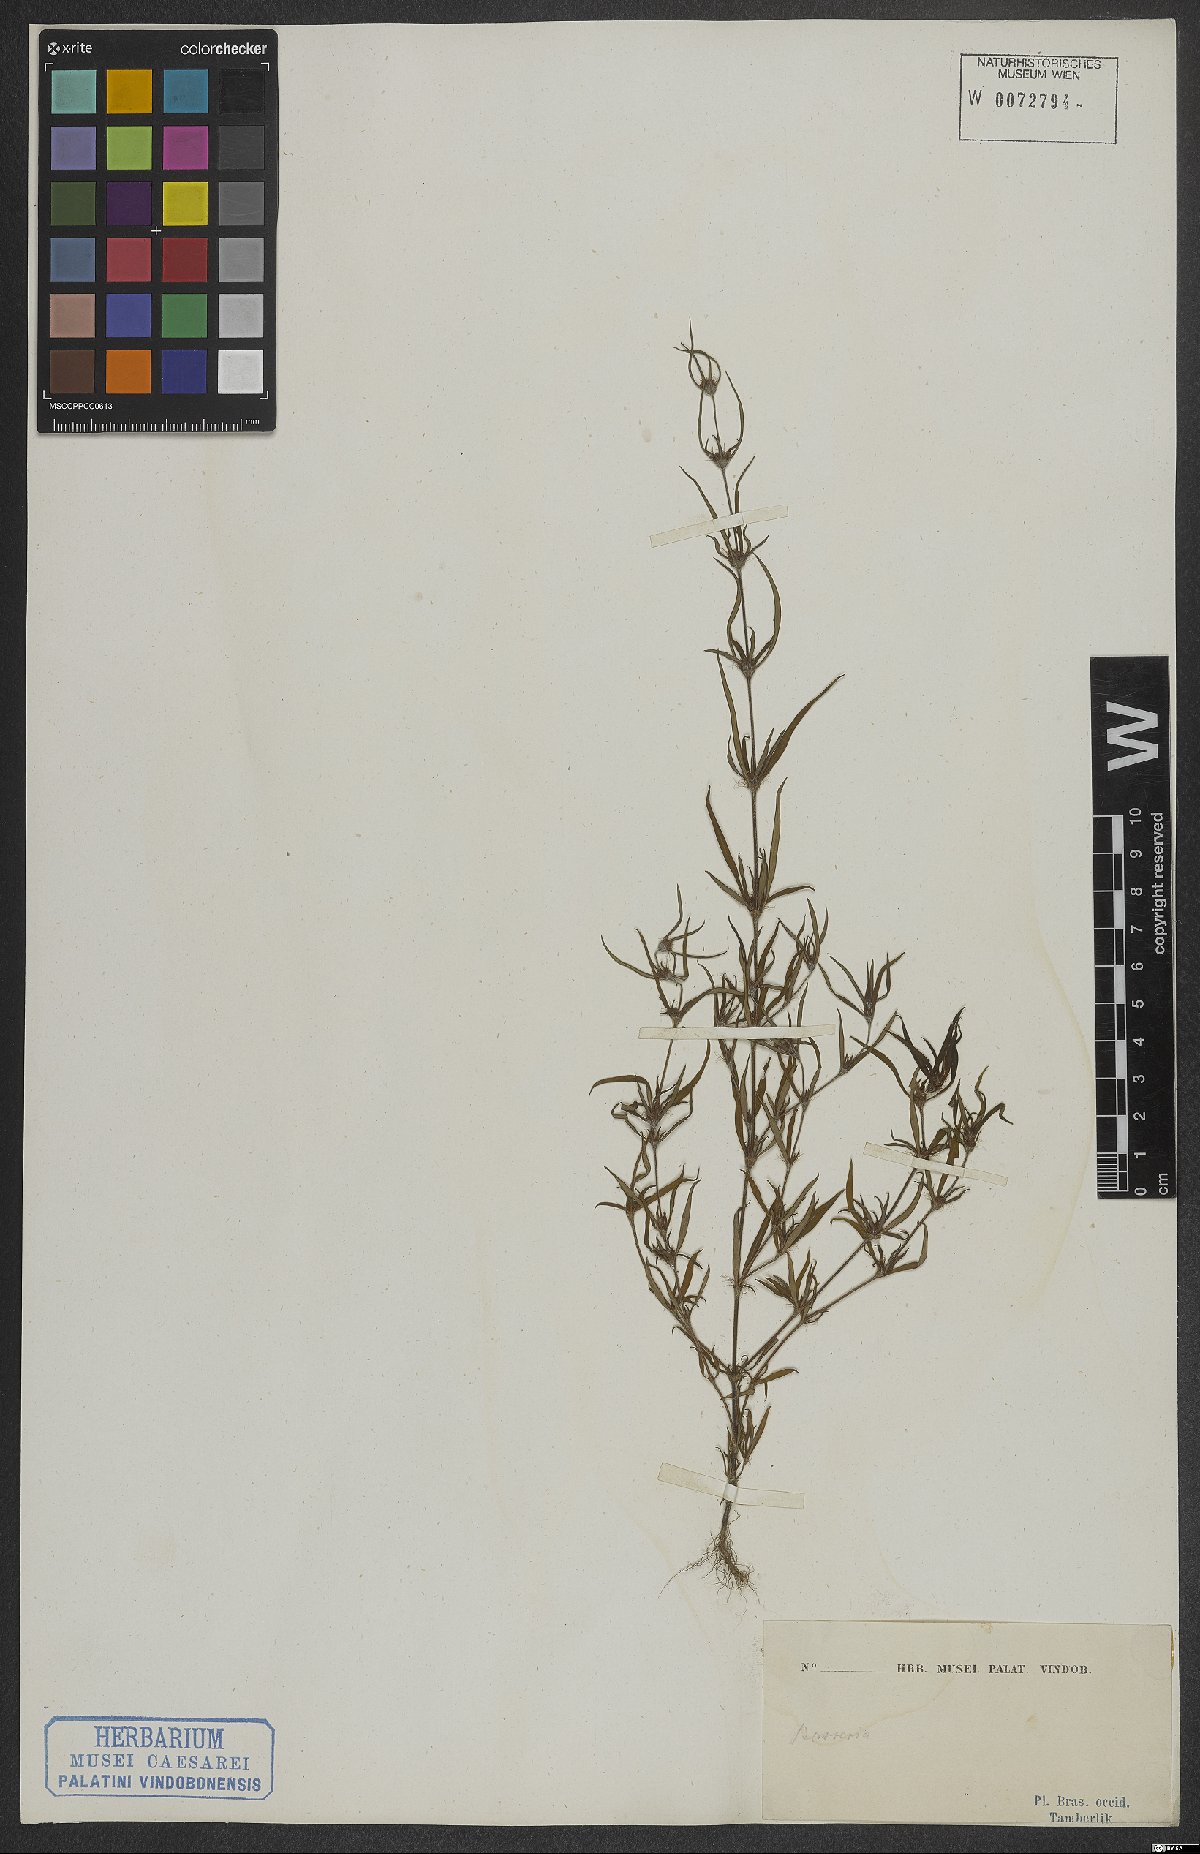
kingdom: Plantae
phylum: Tracheophyta
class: Magnoliopsida
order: Gentianales
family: Rubiaceae
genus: Spermacoce
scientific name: Spermacoce
